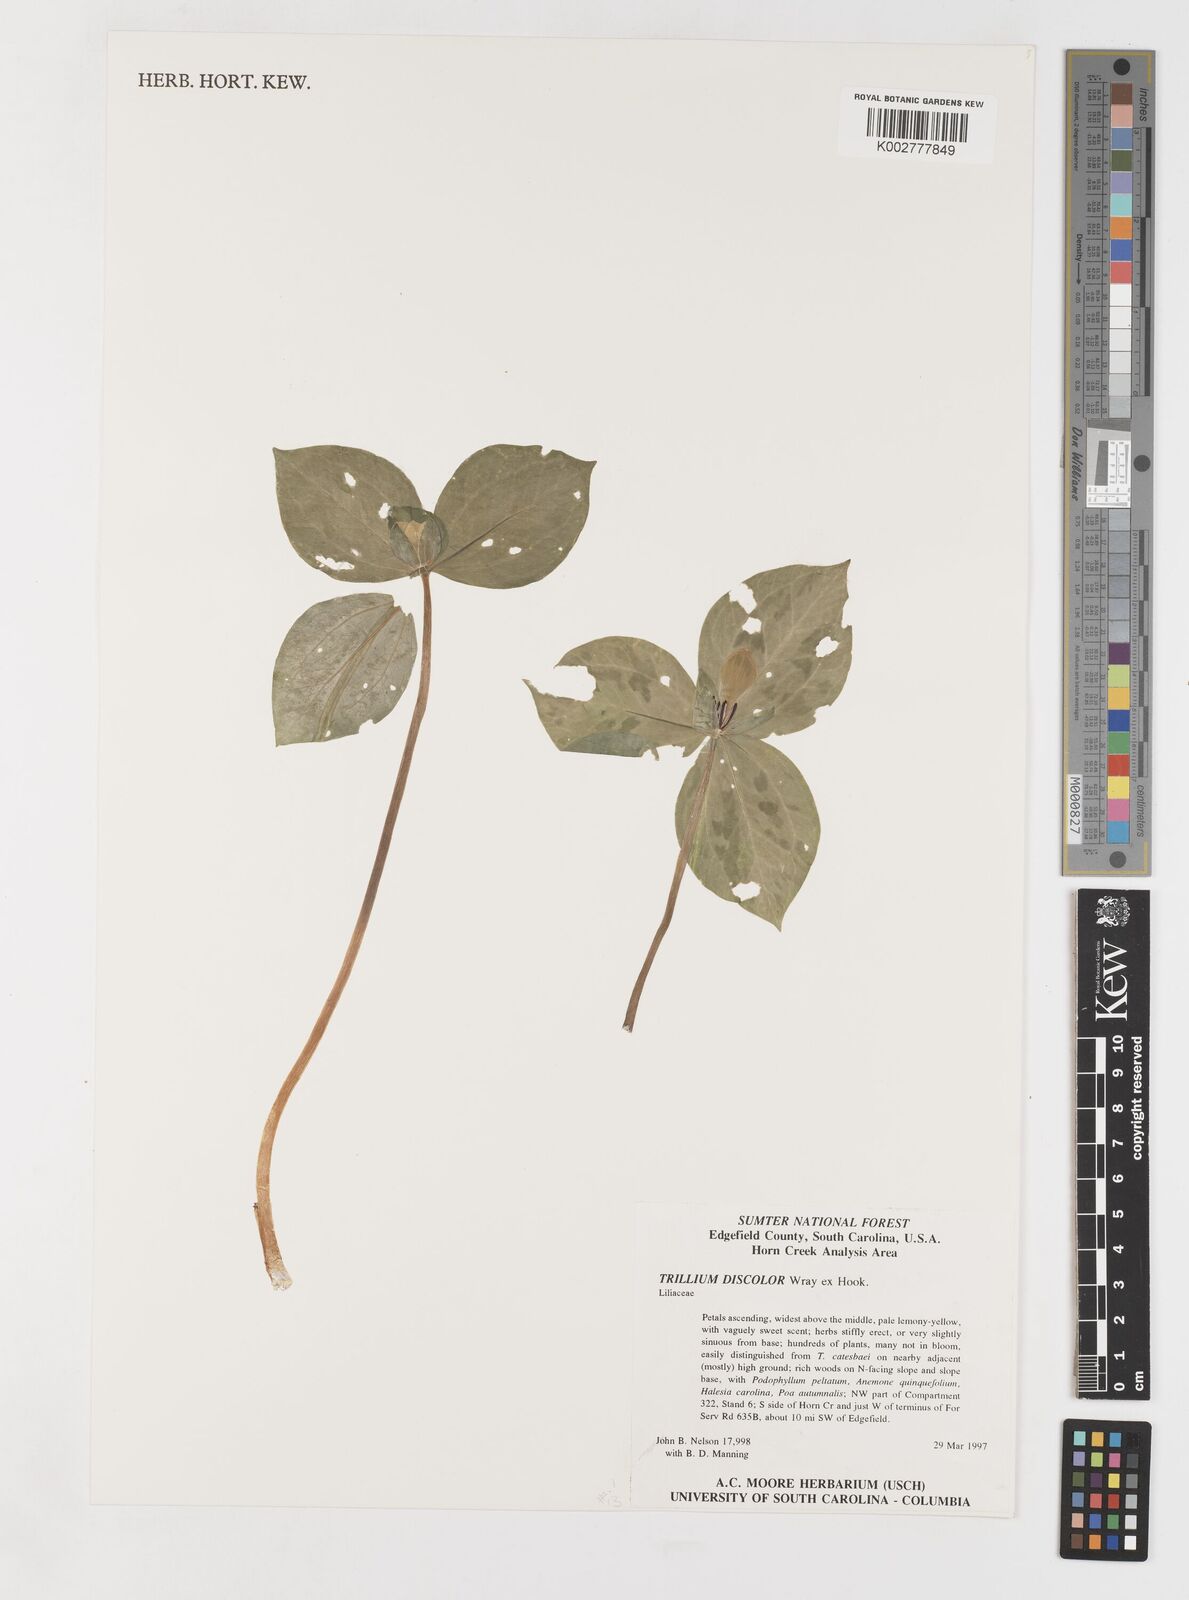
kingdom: Plantae
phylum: Tracheophyta
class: Liliopsida
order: Liliales
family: Melanthiaceae
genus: Trillium
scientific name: Trillium discolor
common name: Faded trillium
